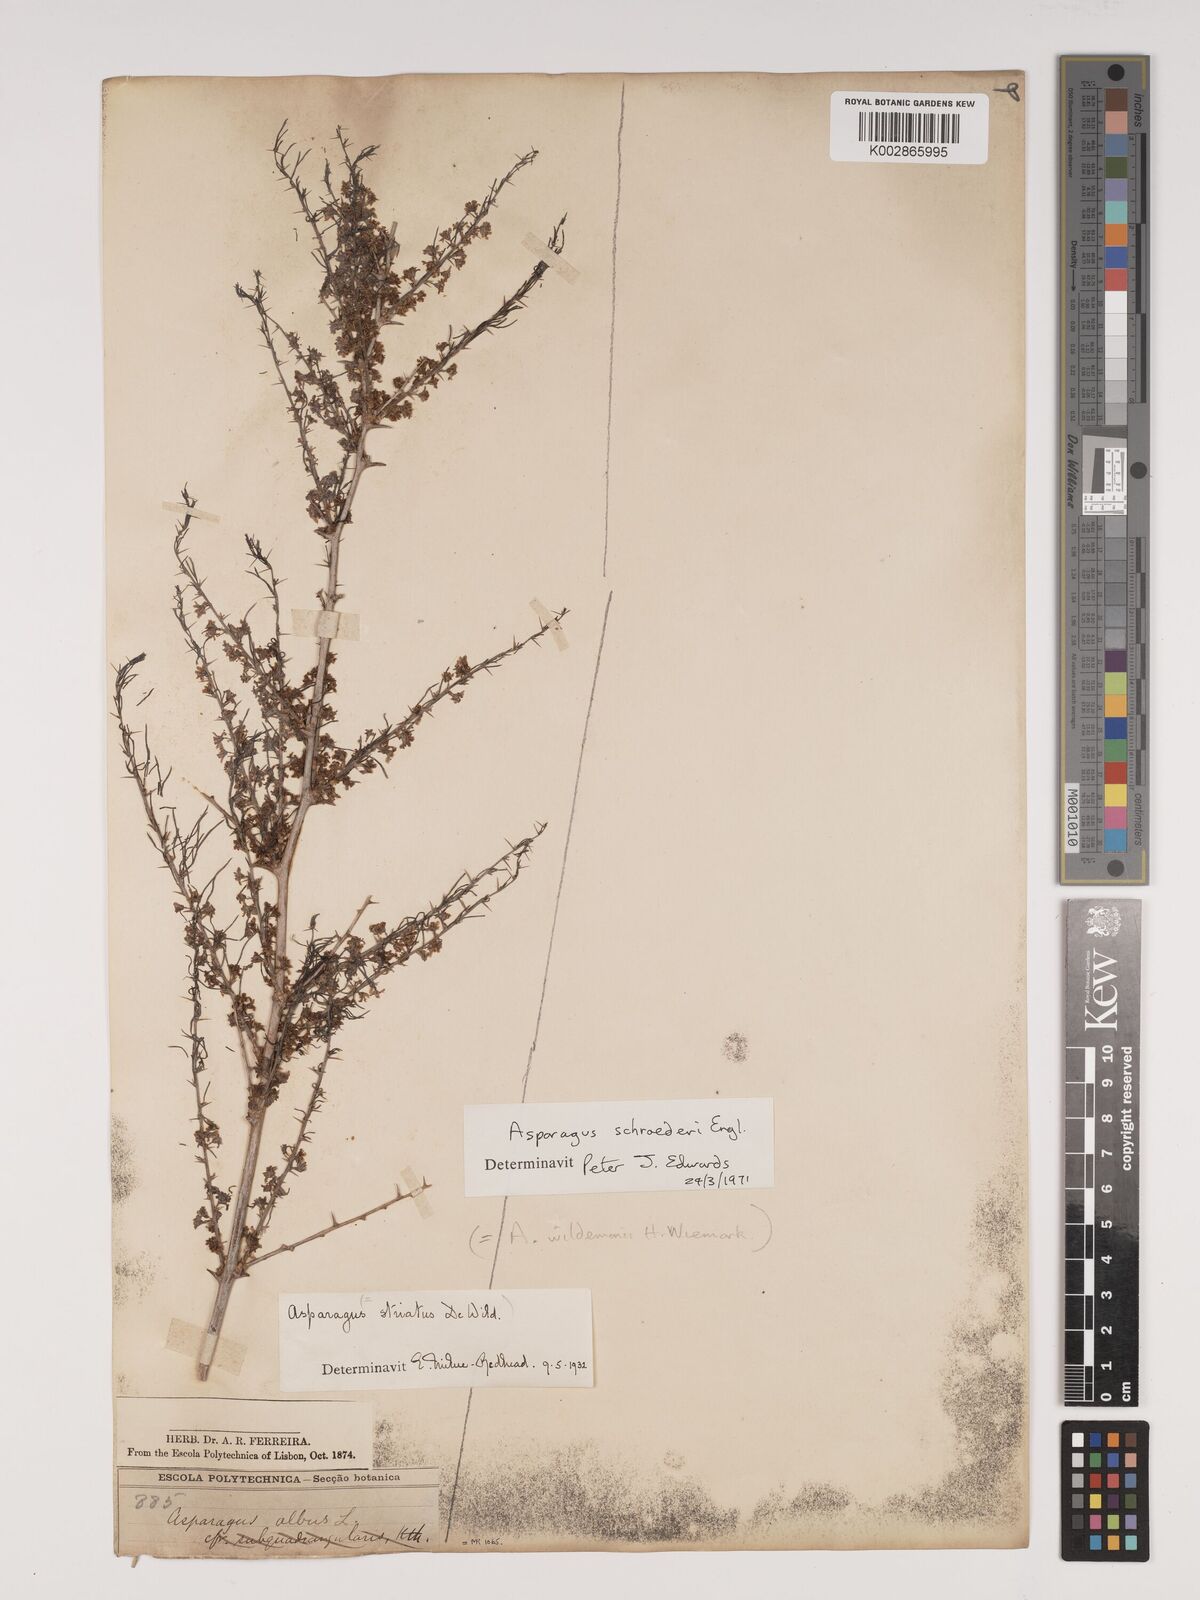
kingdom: Plantae
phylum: Tracheophyta
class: Liliopsida
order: Asparagales
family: Asparagaceae
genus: Asparagus
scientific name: Asparagus schroederi
